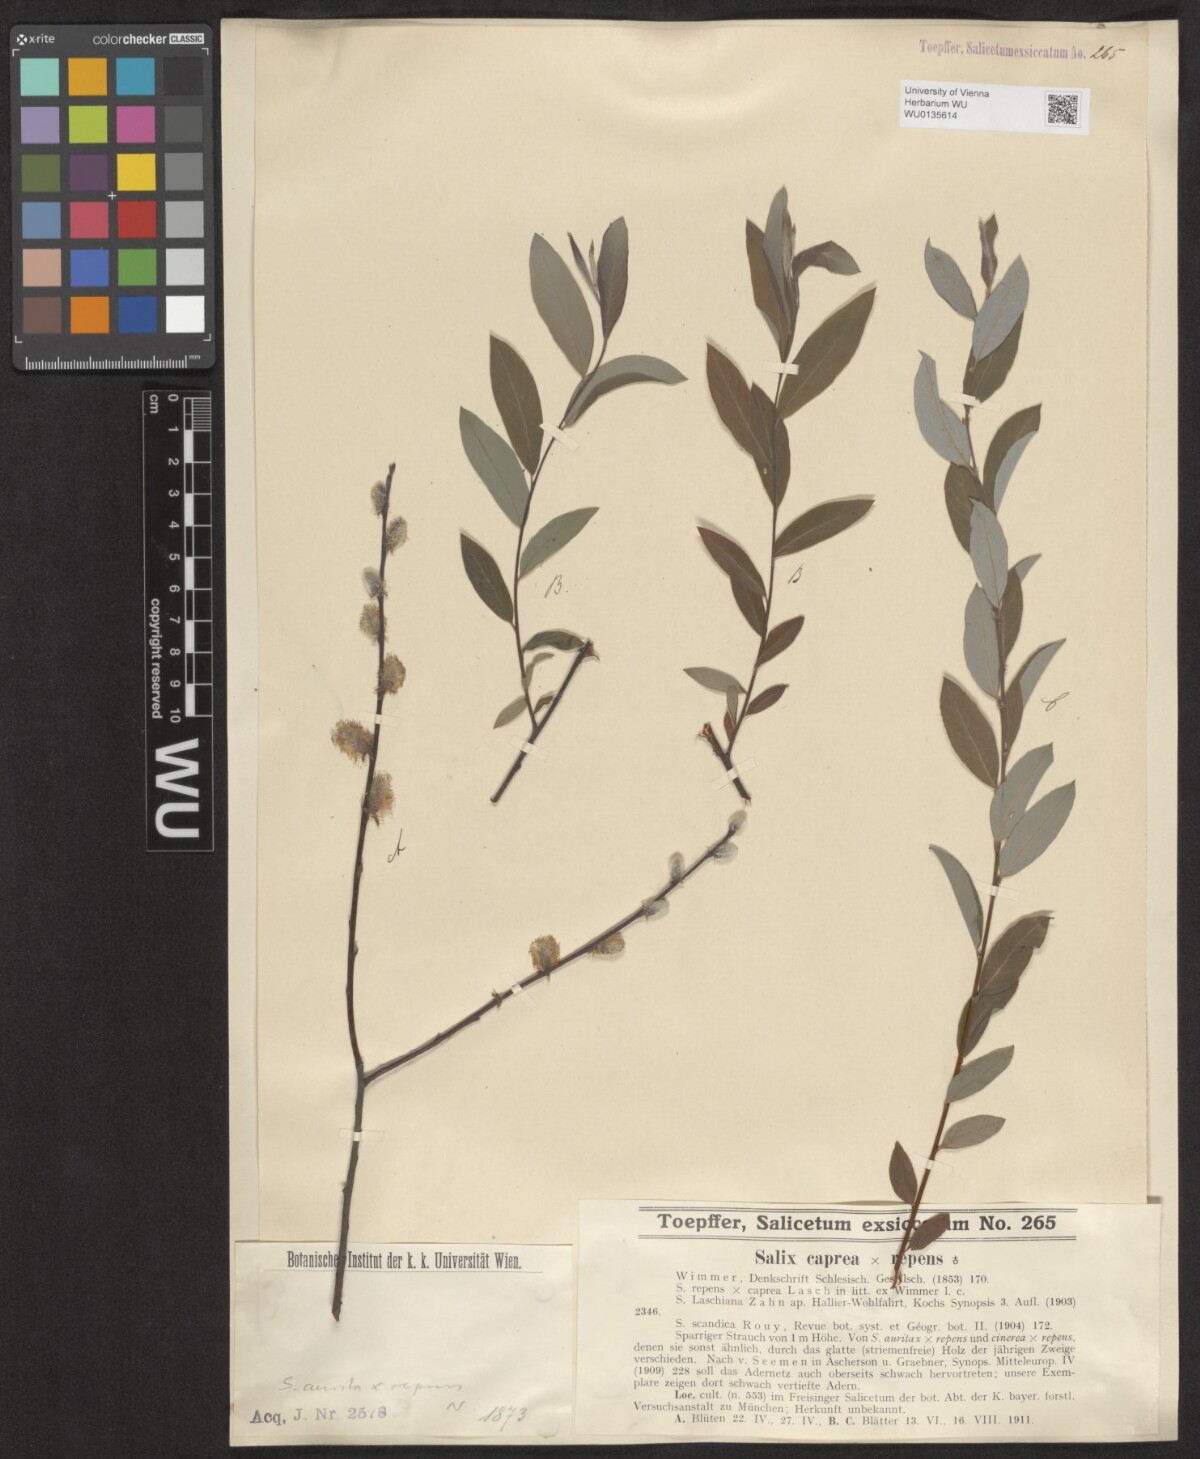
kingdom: Plantae
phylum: Tracheophyta
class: Magnoliopsida
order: Malpighiales
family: Salicaceae
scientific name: Salicaceae
